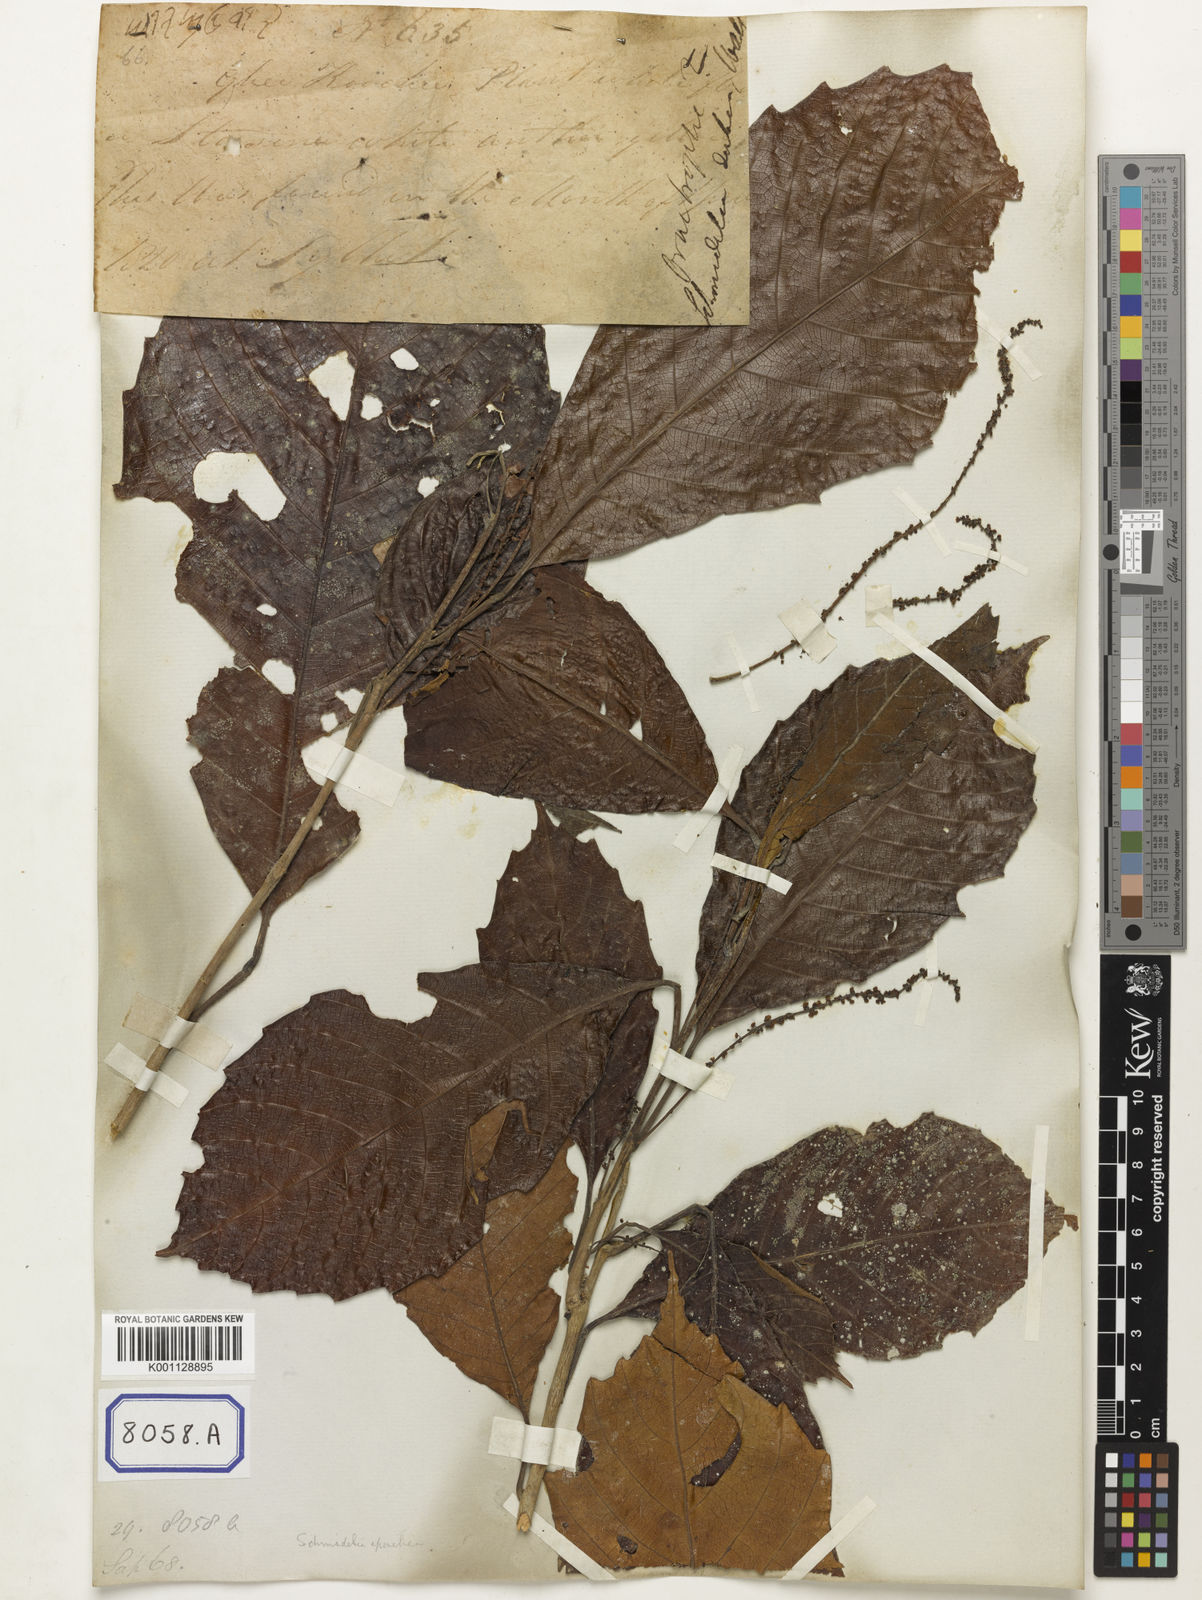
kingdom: Plantae
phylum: Tracheophyta
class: Magnoliopsida
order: Malpighiales
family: Calophyllaceae
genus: Calophyllum
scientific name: Calophyllum
